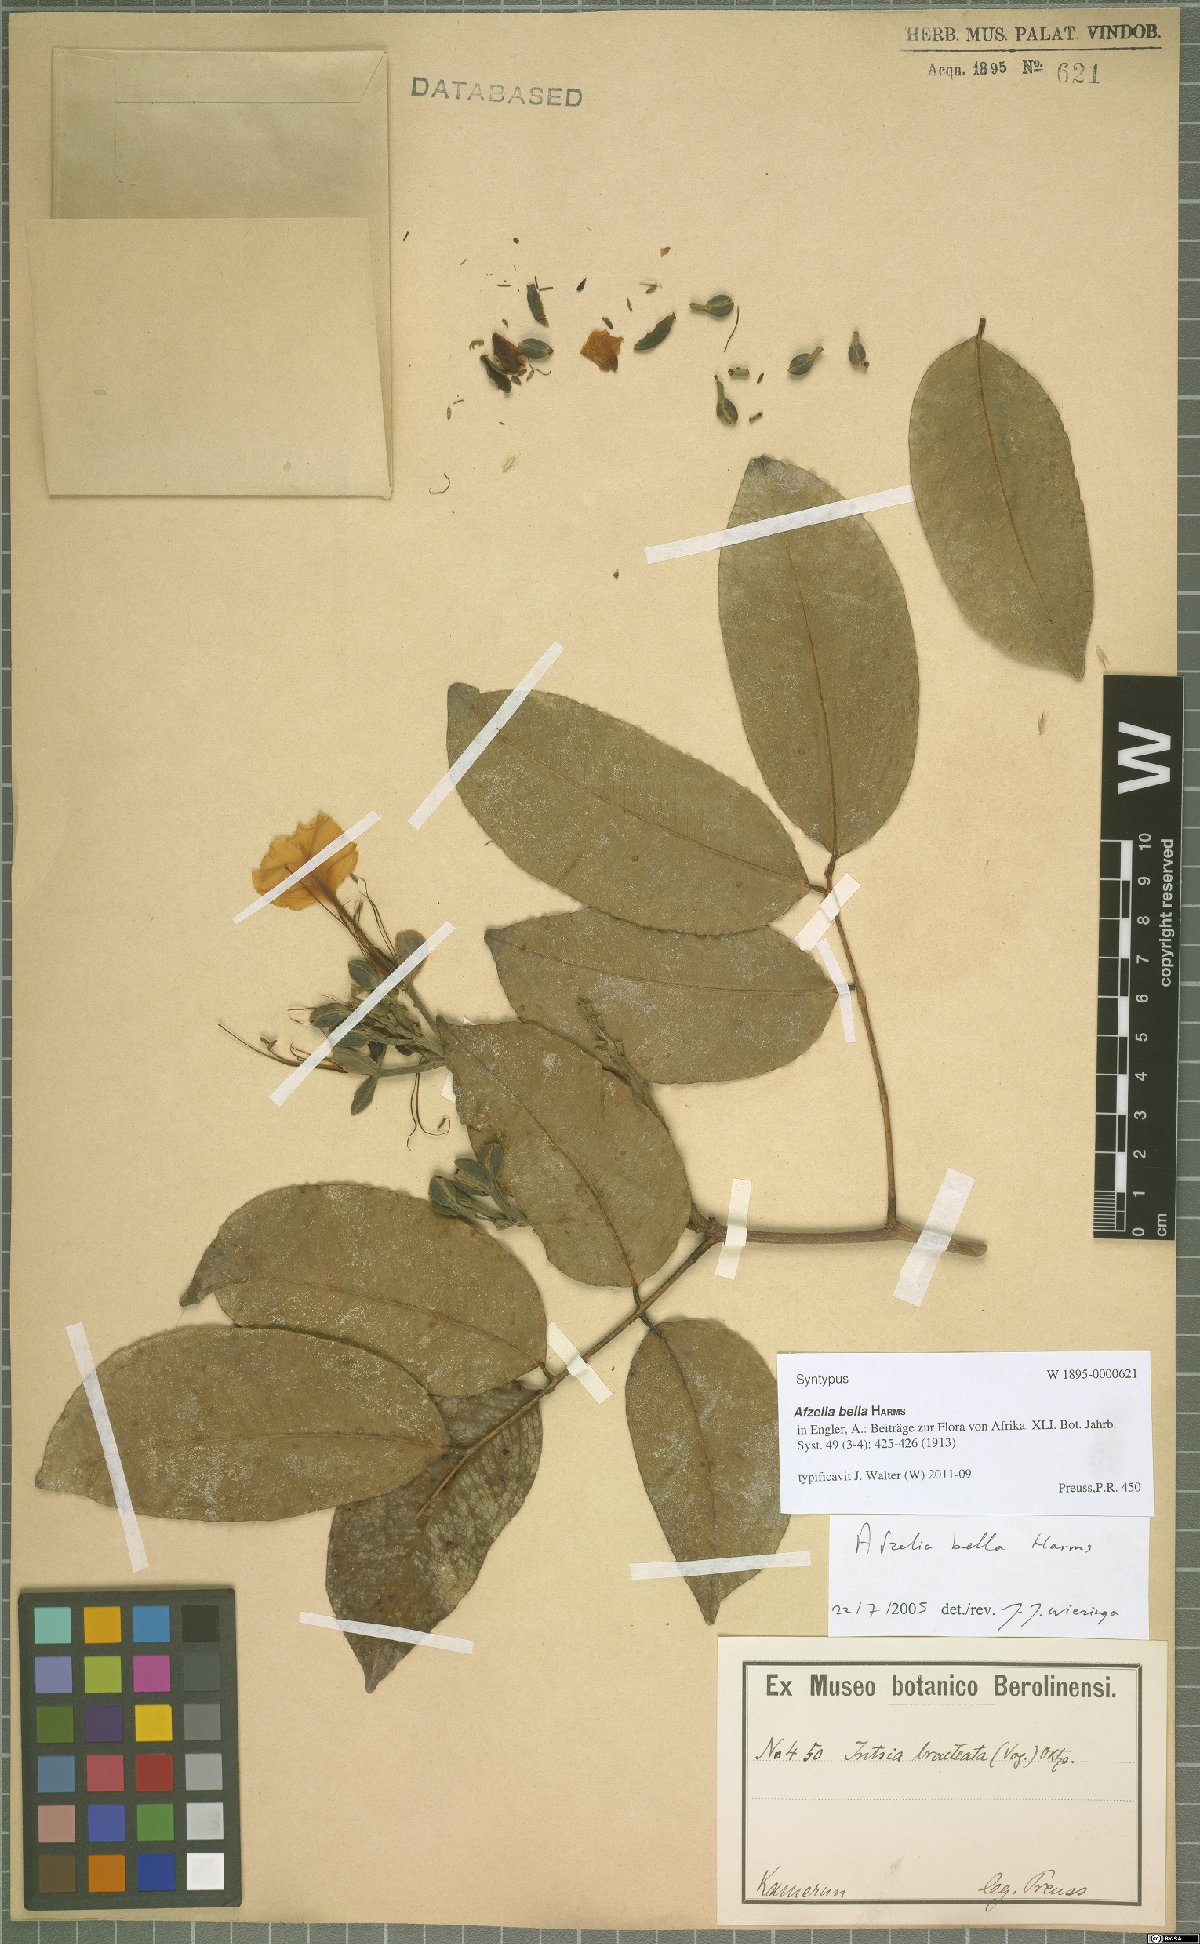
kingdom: Plantae
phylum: Tracheophyta
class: Magnoliopsida
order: Fabales
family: Fabaceae
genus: Afzelia
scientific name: Afzelia bella
